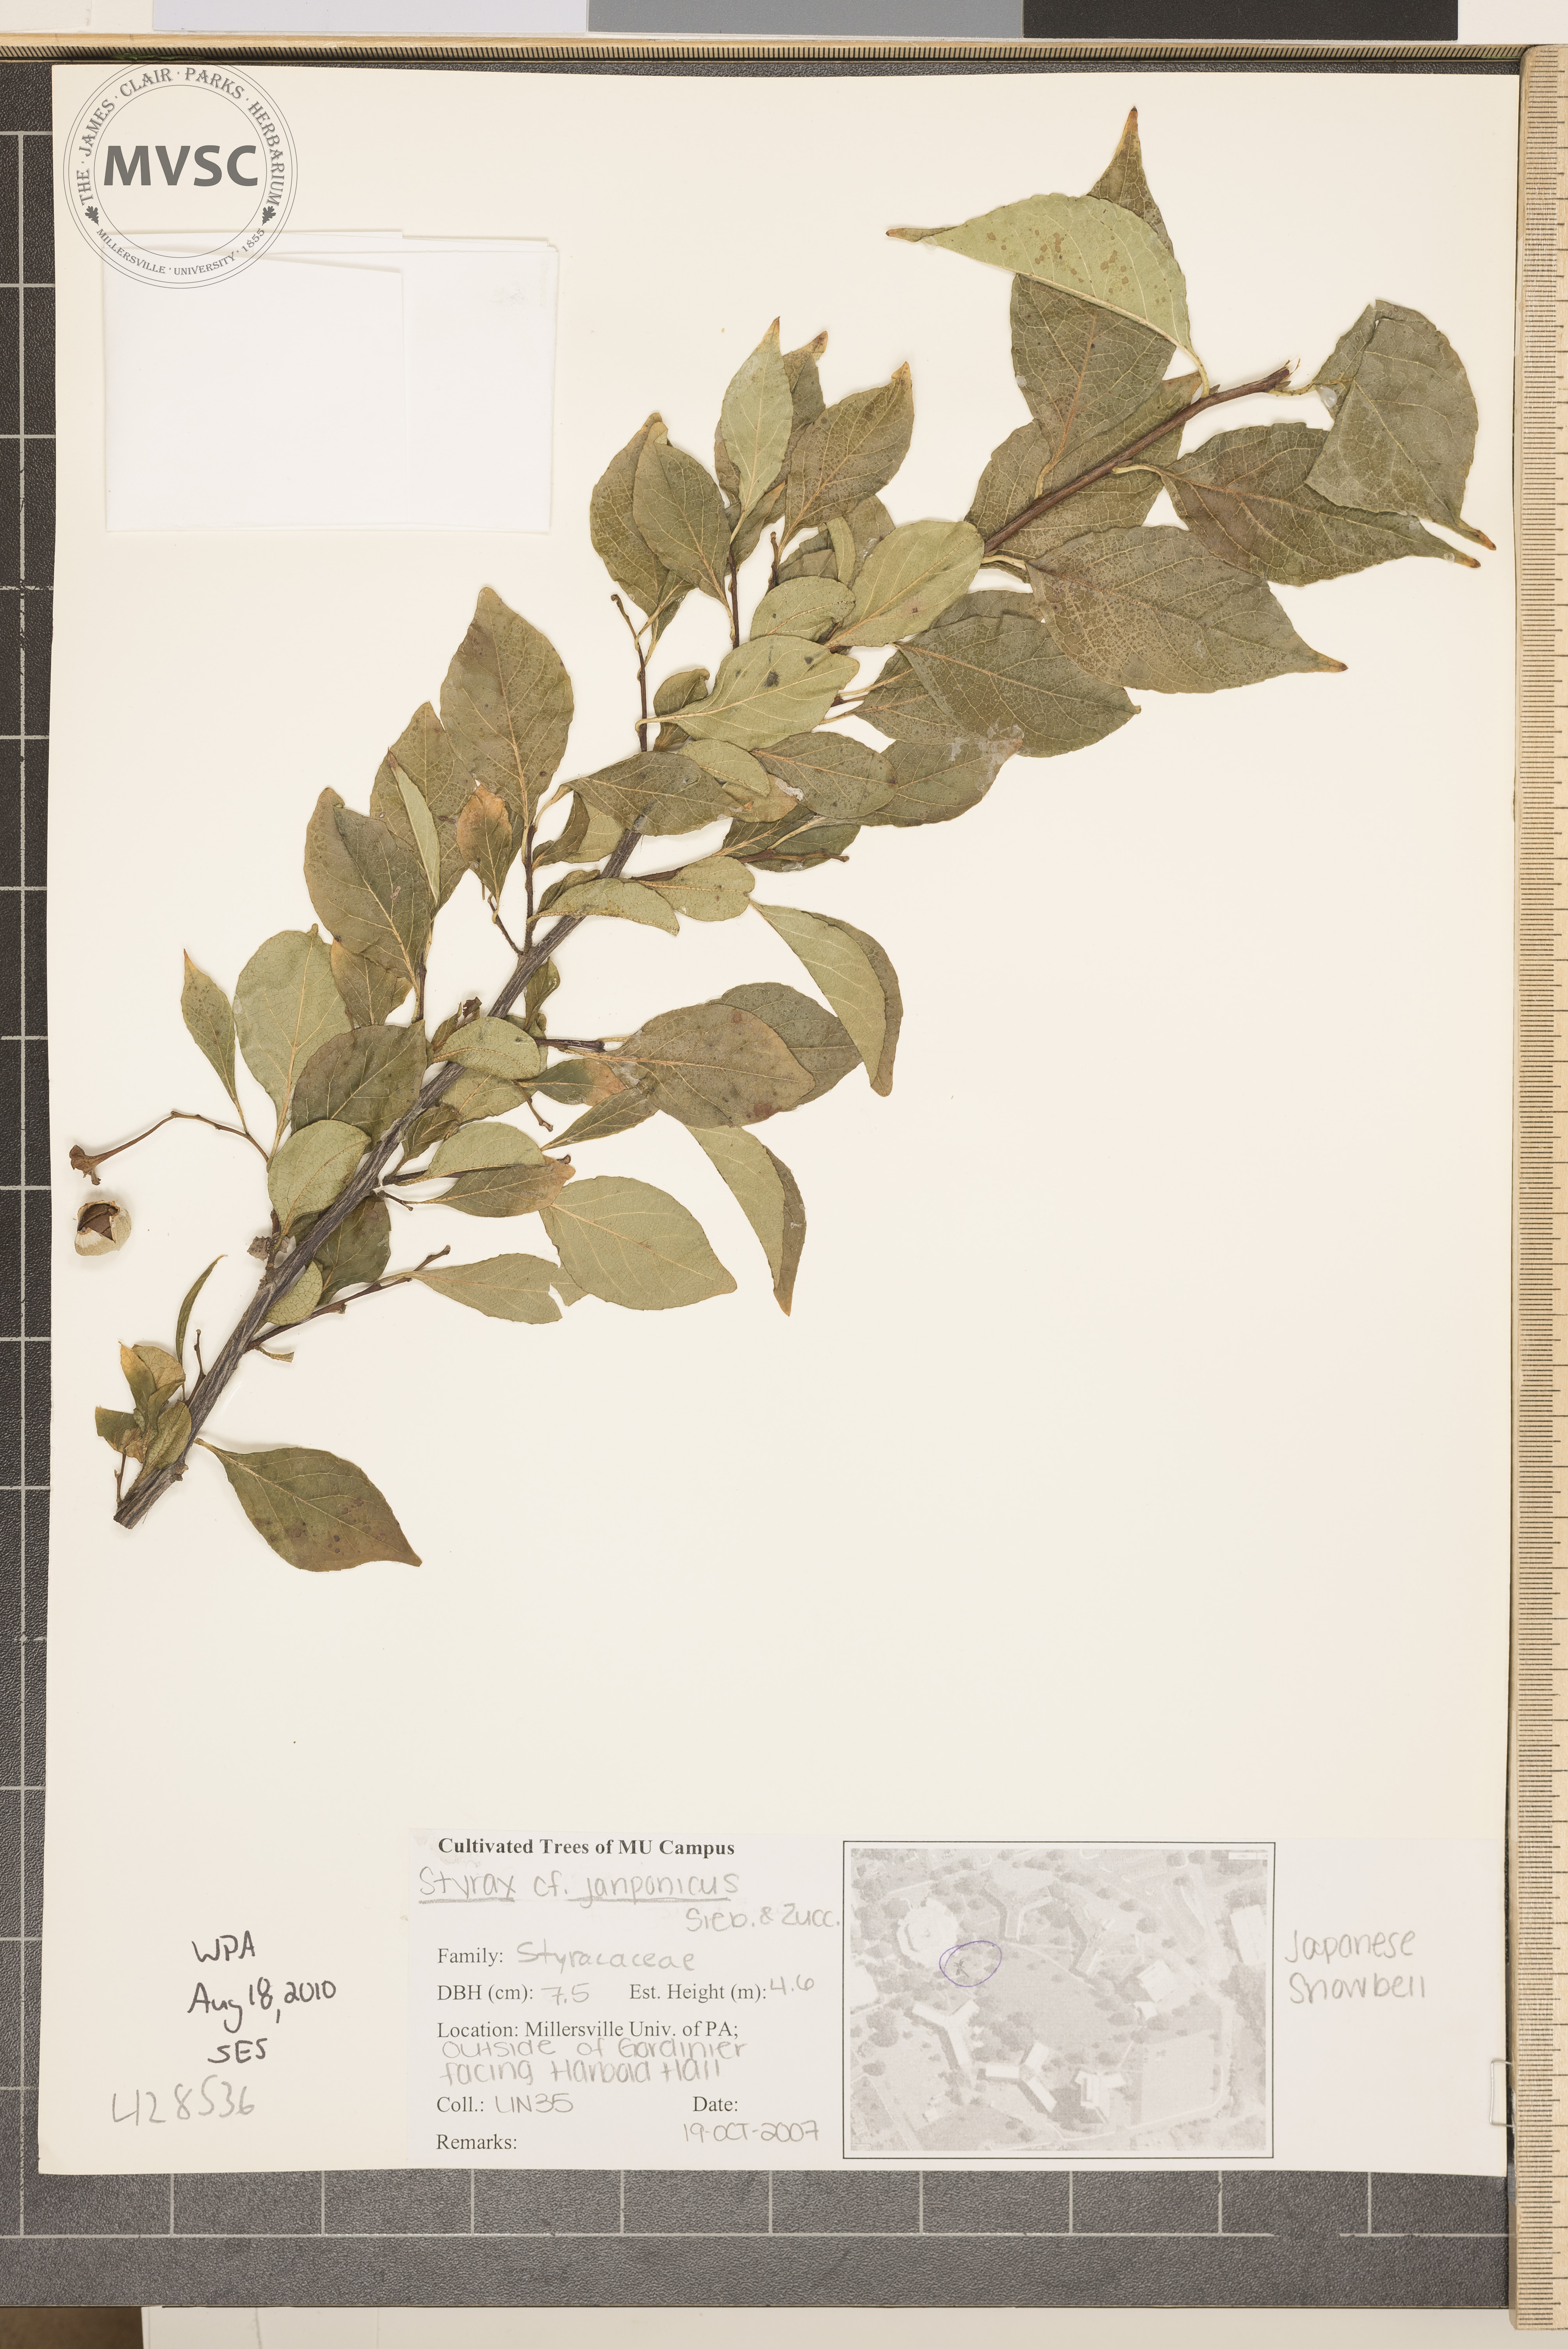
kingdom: Plantae
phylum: Tracheophyta
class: Magnoliopsida
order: Ericales
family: Styracaceae
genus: Styrax
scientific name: Styrax japonicus
